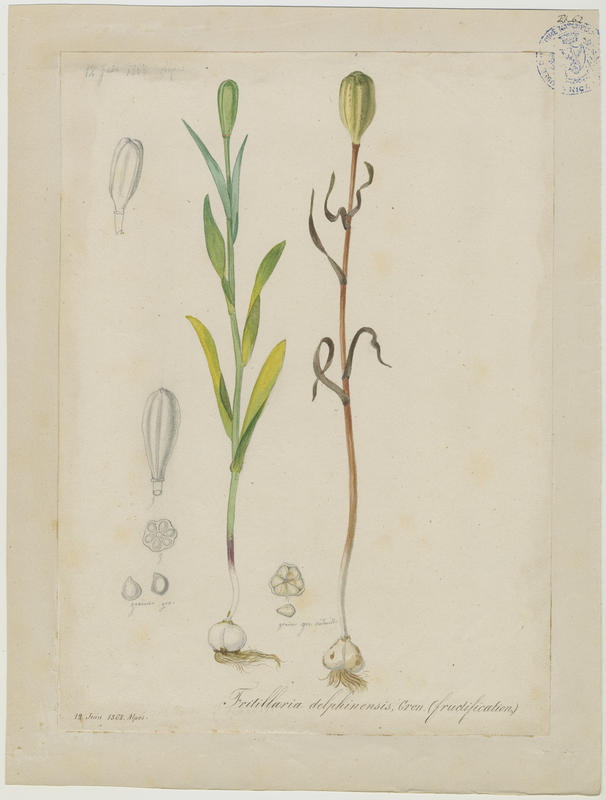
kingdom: Plantae
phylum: Tracheophyta
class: Liliopsida
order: Liliales
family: Liliaceae
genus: Fritillaria
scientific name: Fritillaria tubiformis
